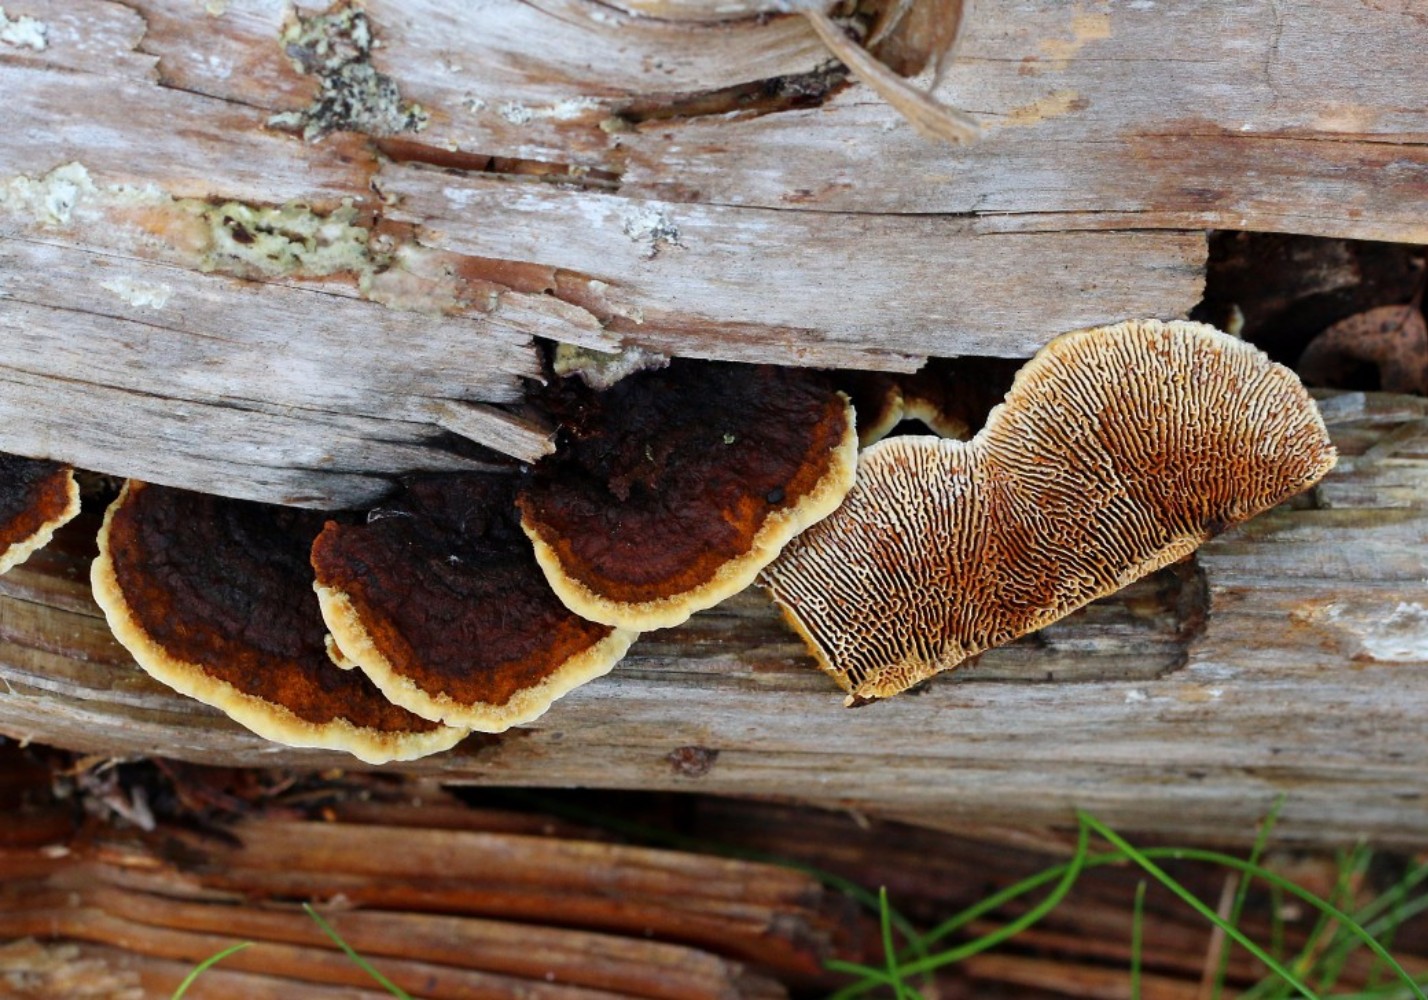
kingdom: Fungi
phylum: Basidiomycota
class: Agaricomycetes
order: Gloeophyllales
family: Gloeophyllaceae
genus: Gloeophyllum
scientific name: Gloeophyllum sepiarium
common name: fyrre-korkhat
